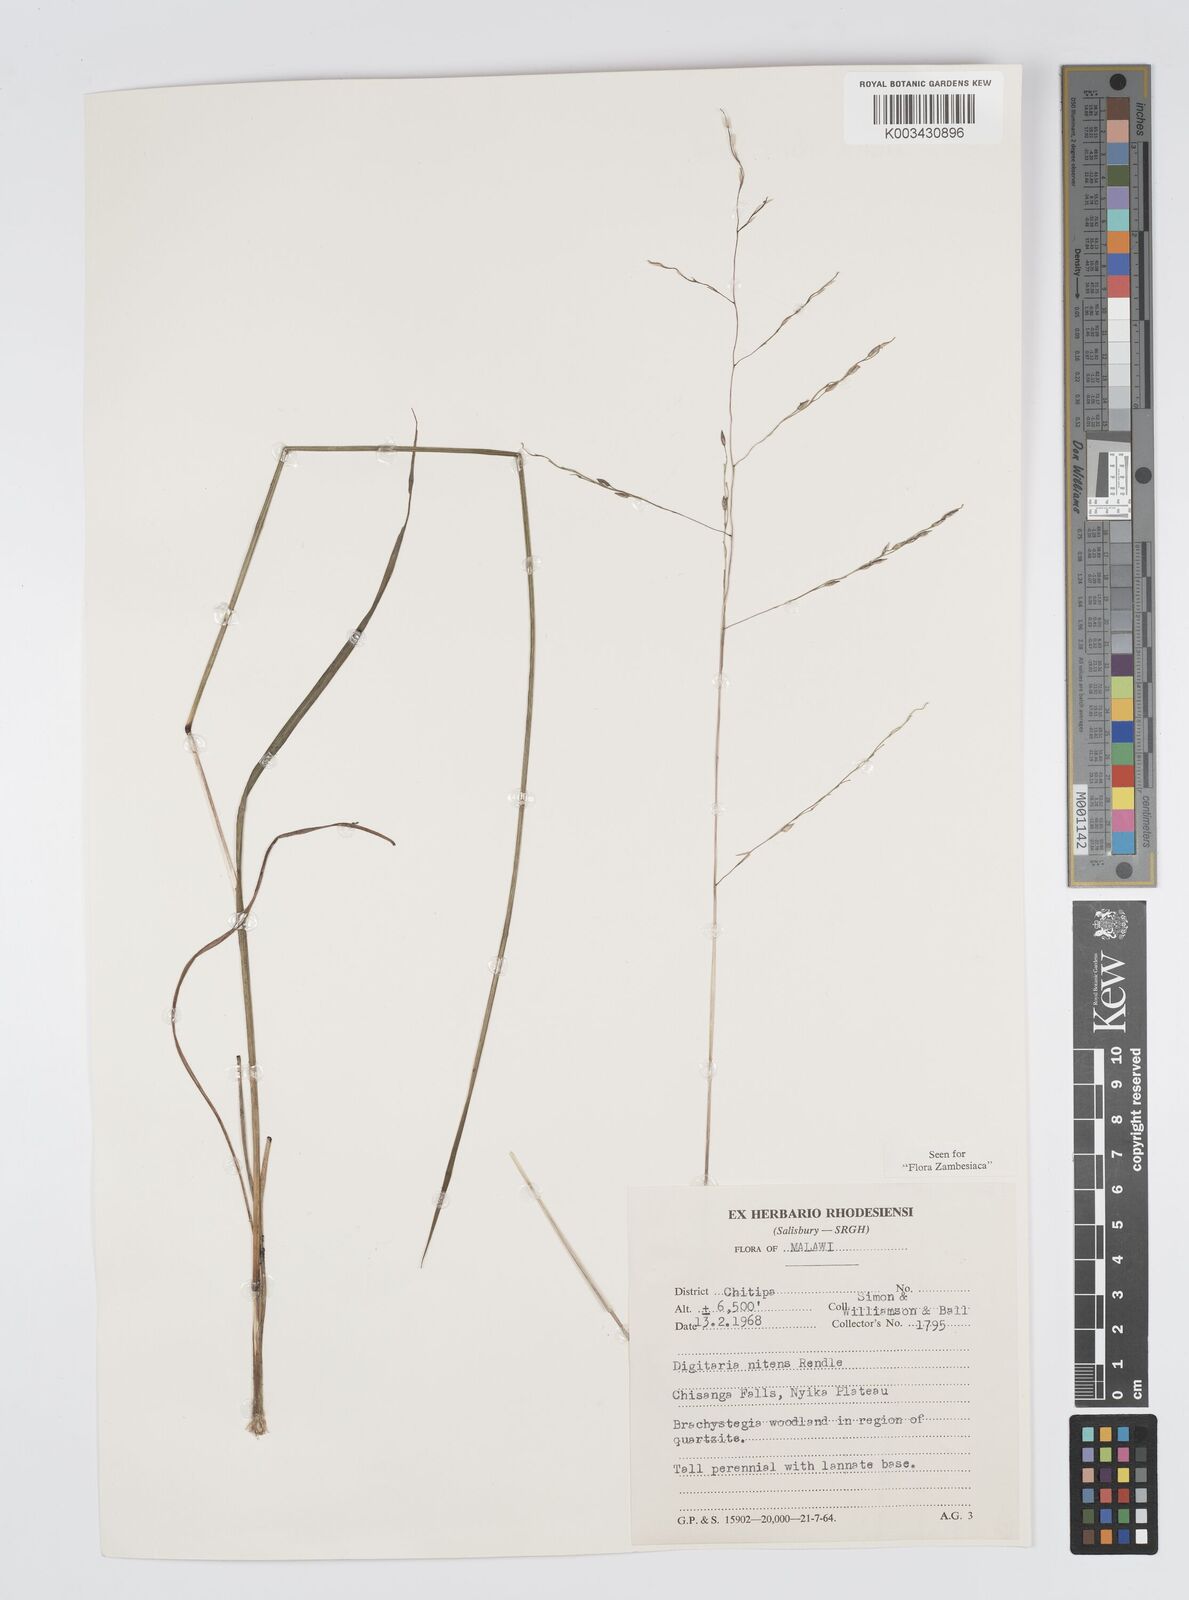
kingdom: Plantae
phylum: Tracheophyta
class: Liliopsida
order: Poales
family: Poaceae
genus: Digitaria
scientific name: Digitaria flaccida
